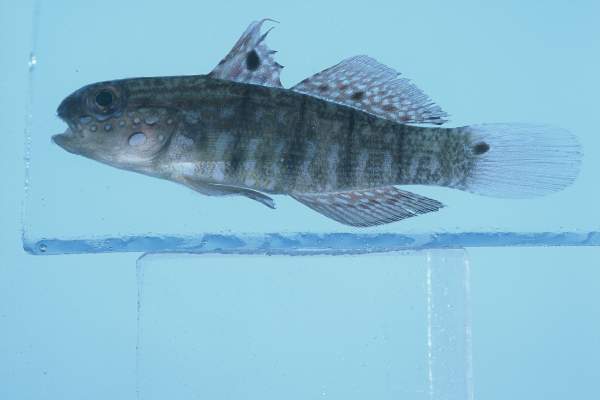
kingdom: Animalia
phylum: Chordata
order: Perciformes
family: Gobiidae
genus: Amblygobius
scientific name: Amblygobius semicinctus
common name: Halfbarred goby
